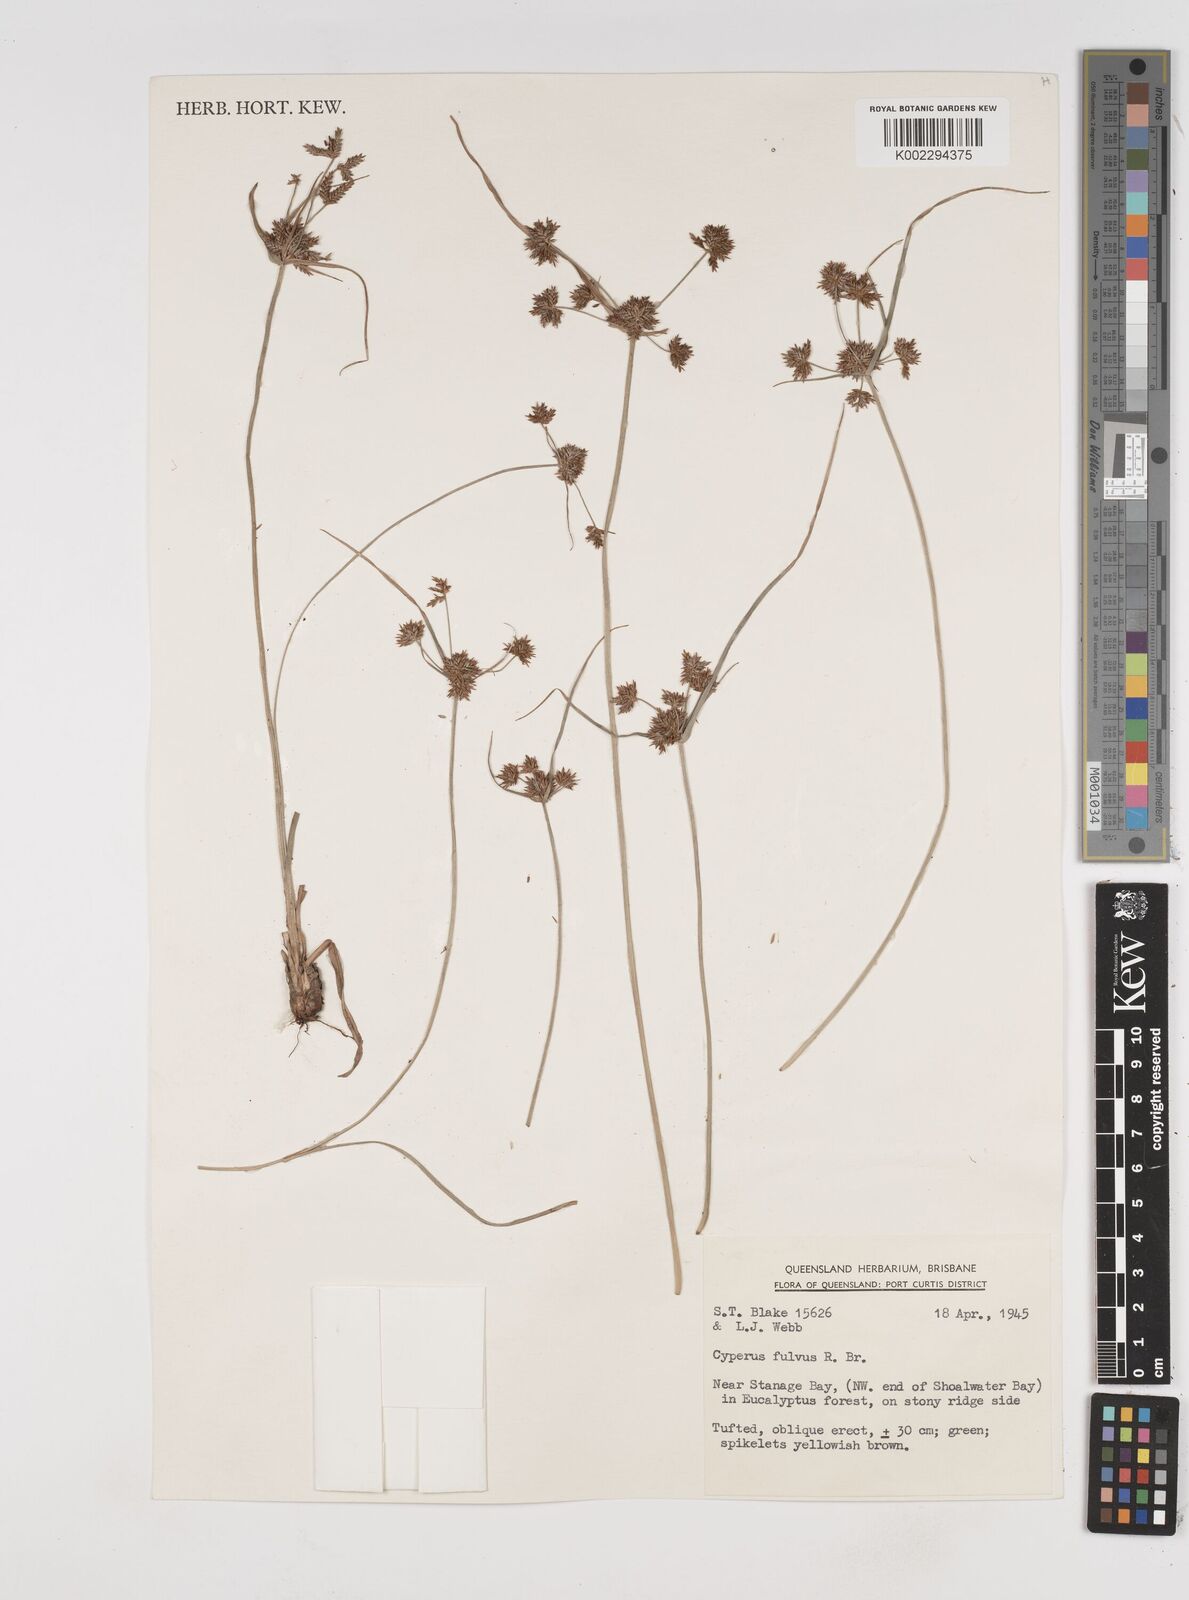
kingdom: Plantae
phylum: Tracheophyta
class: Liliopsida
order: Poales
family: Cyperaceae
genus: Cyperus
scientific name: Cyperus fulvus
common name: Sticky sedge
